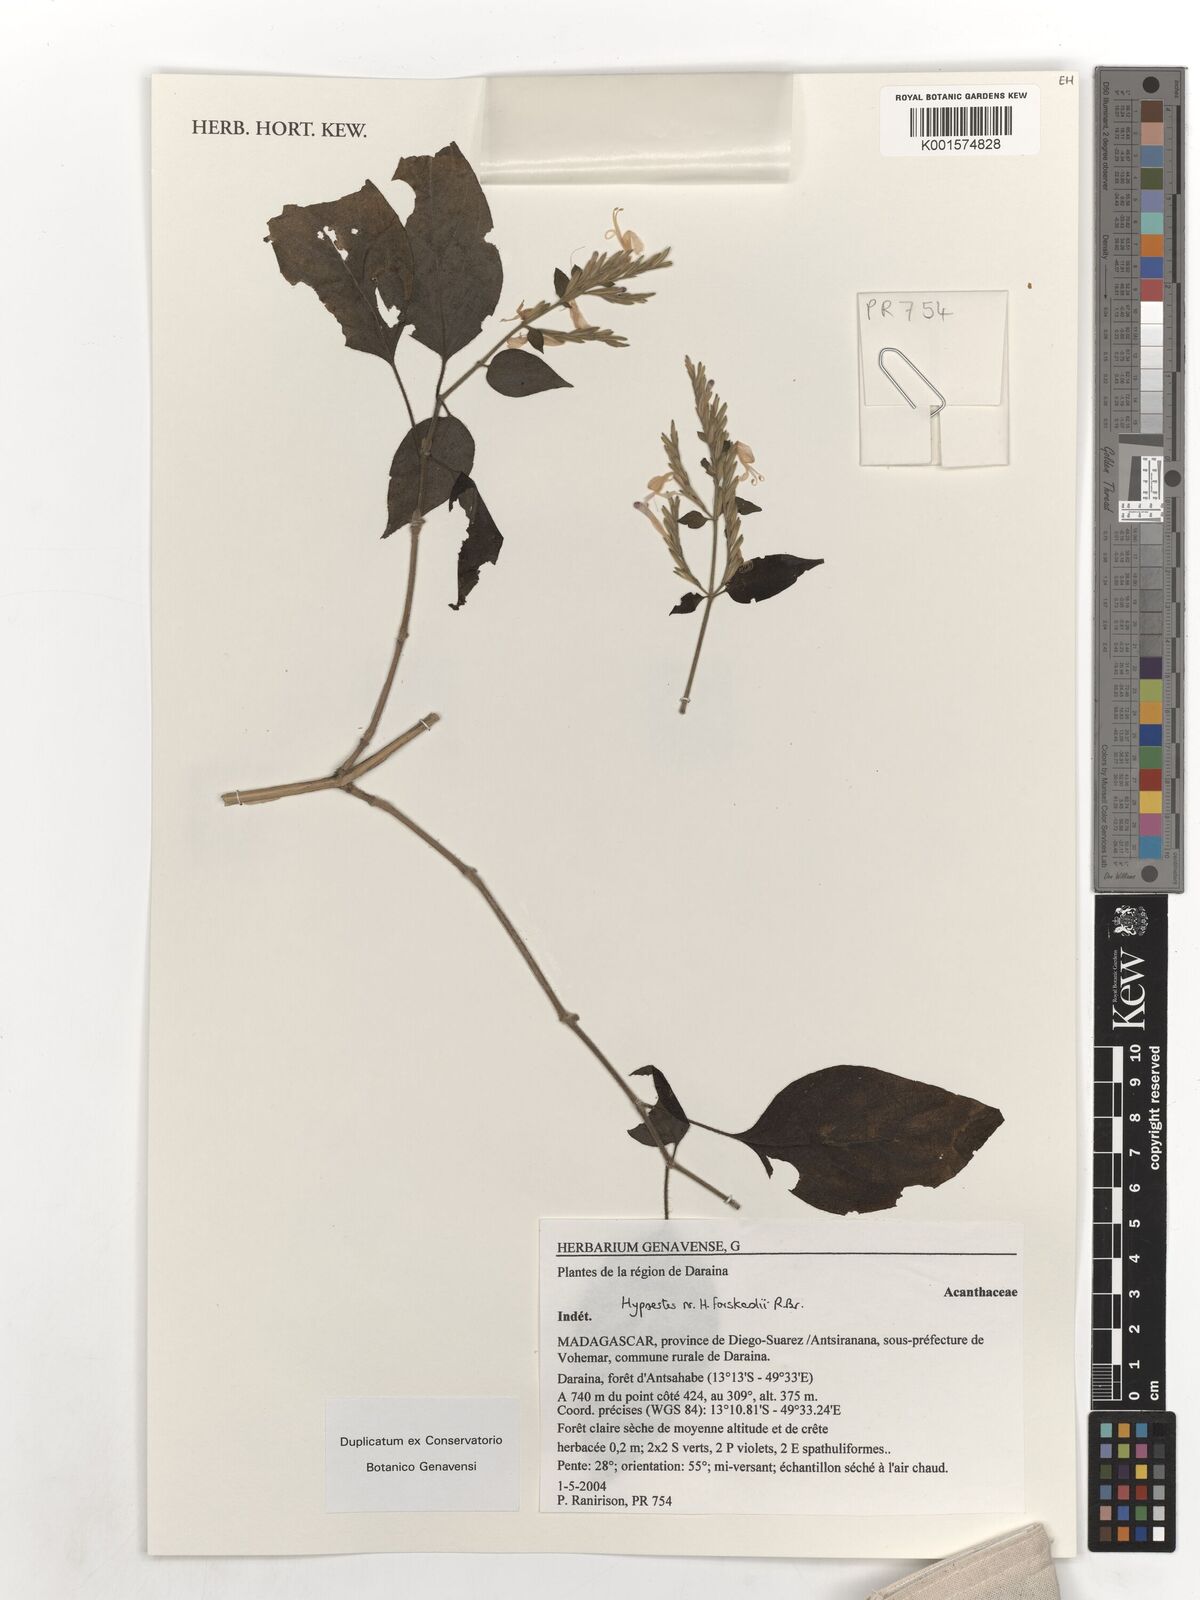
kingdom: Plantae
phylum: Tracheophyta
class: Magnoliopsida
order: Lamiales
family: Acanthaceae
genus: Hypoestes
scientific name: Hypoestes forskaolii
